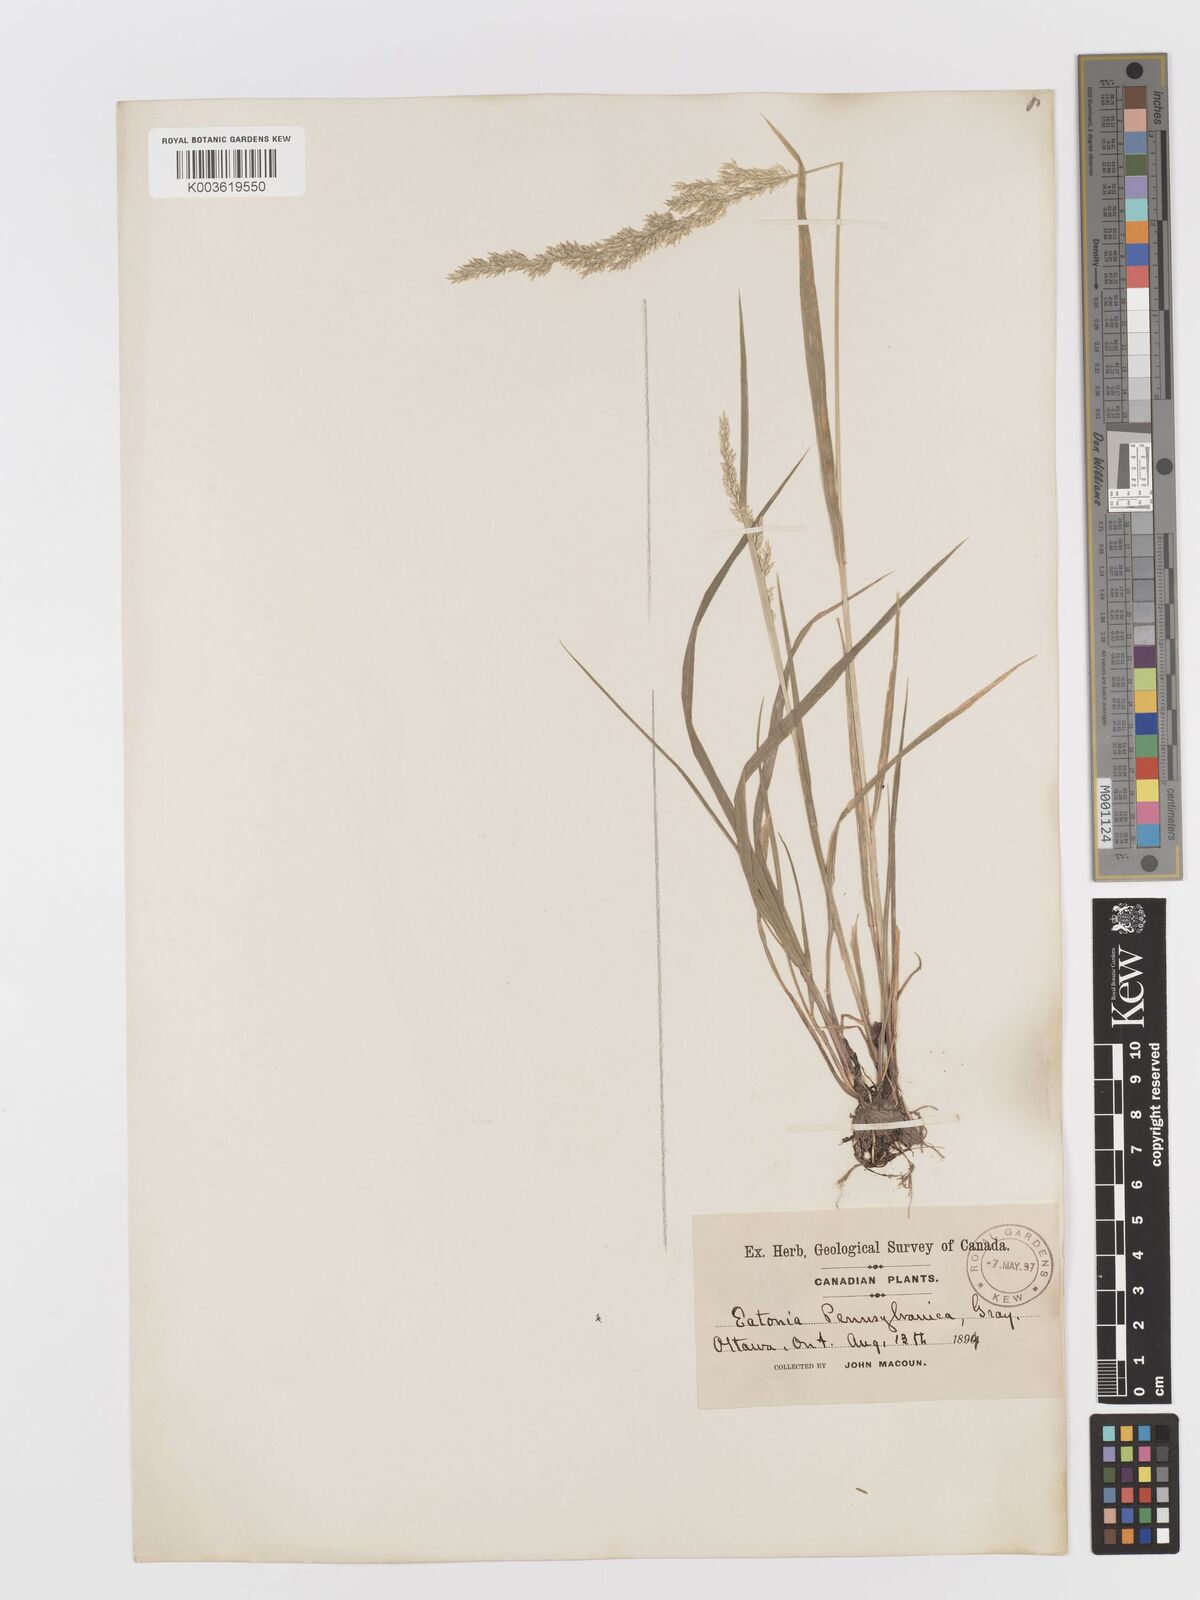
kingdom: Plantae
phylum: Tracheophyta
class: Liliopsida
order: Poales
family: Poaceae
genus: Sphenopholis
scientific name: Sphenopholis obtusata
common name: Prairie grass
